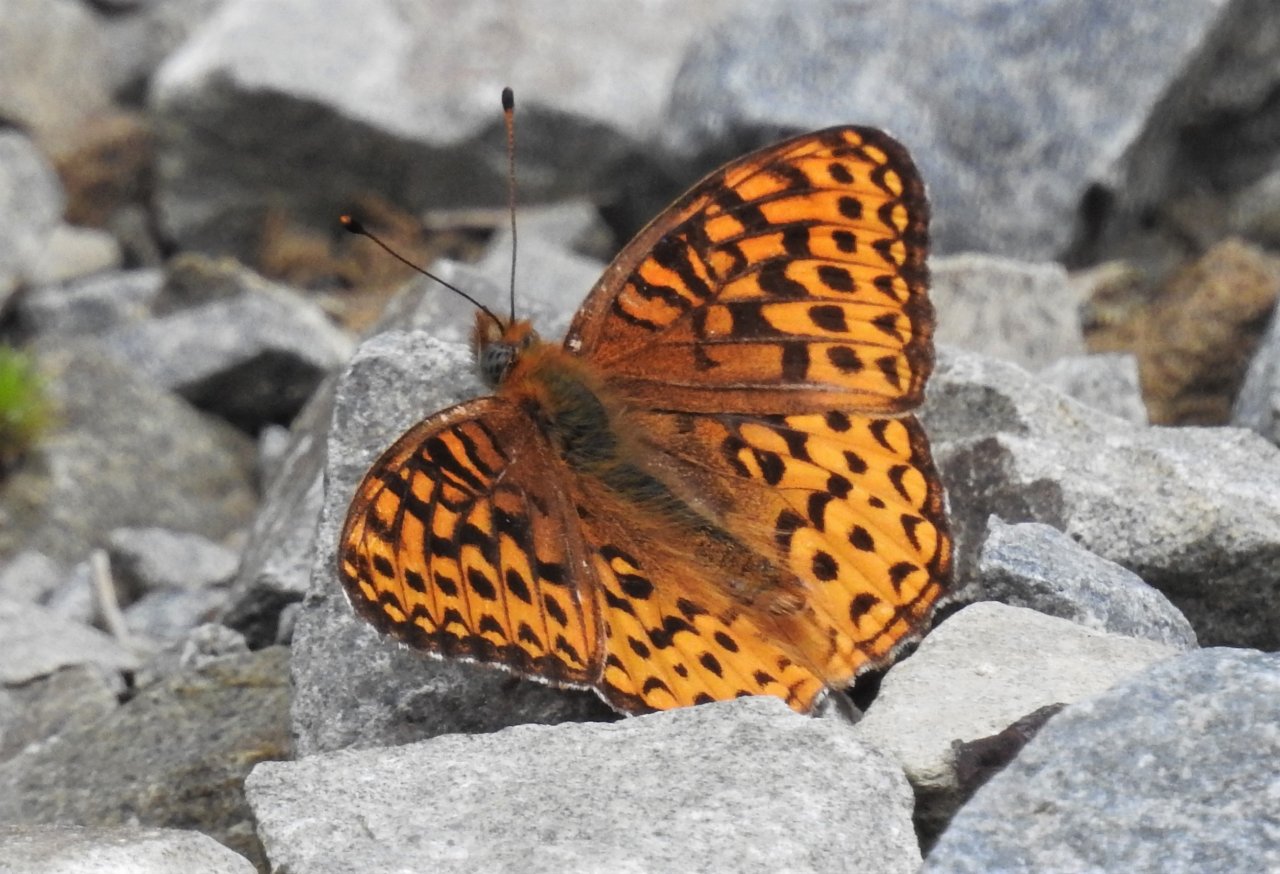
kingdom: Animalia
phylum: Arthropoda
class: Insecta
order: Lepidoptera
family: Nymphalidae
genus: Speyeria
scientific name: Speyeria atlantis
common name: Atlantis Fritillary
